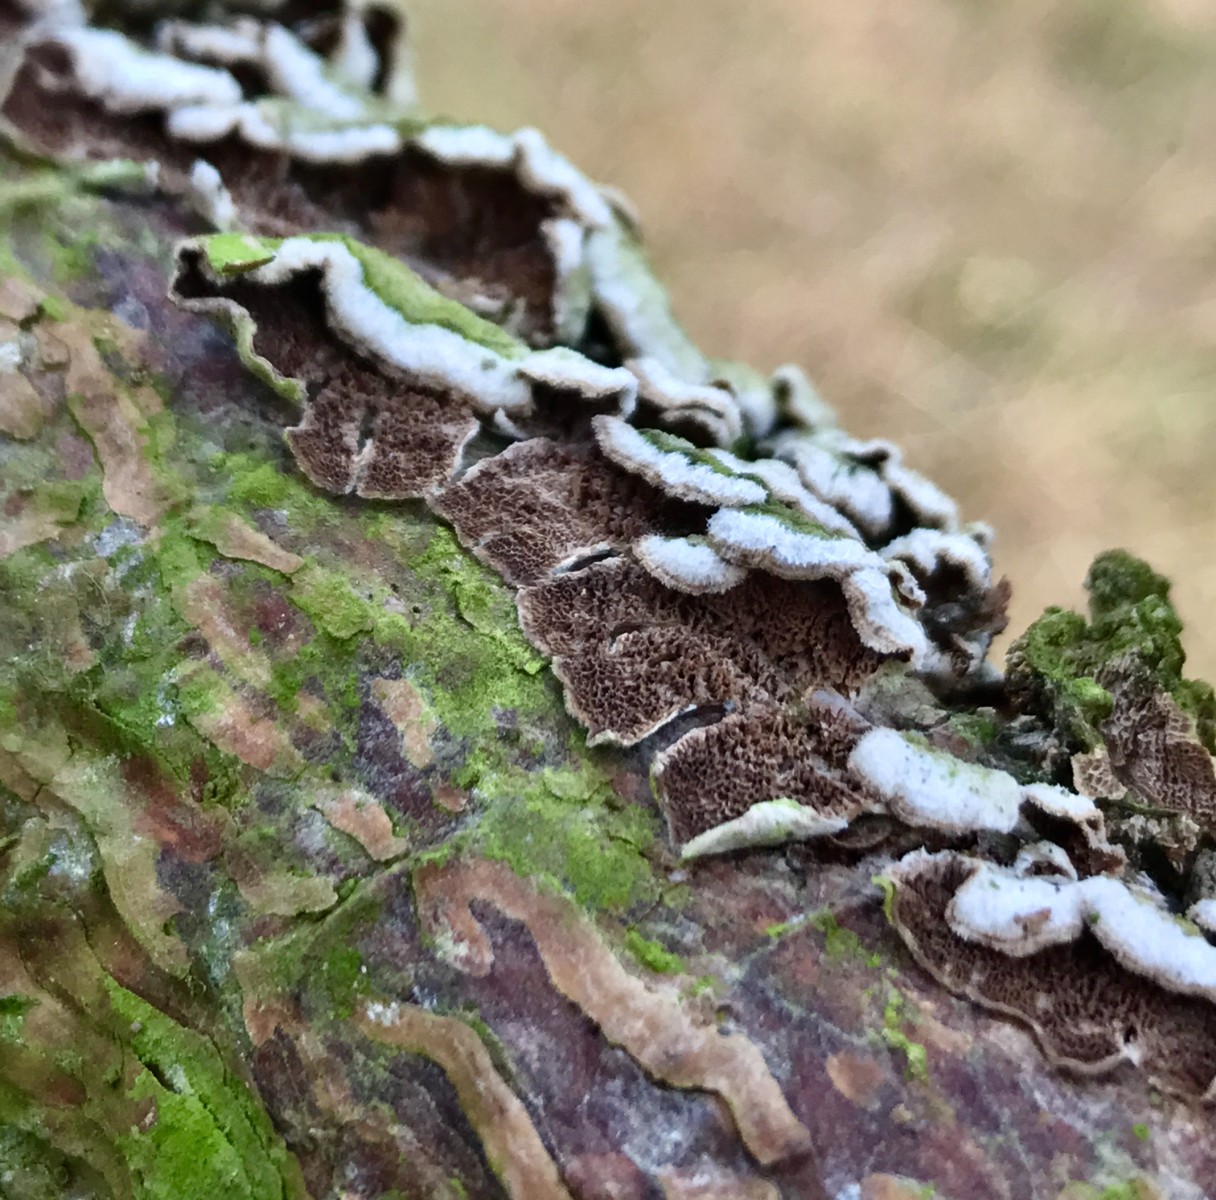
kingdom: Fungi
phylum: Basidiomycota
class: Agaricomycetes
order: Hymenochaetales
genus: Trichaptum
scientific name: Trichaptum fuscoviolaceum
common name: tandet violporesvamp
